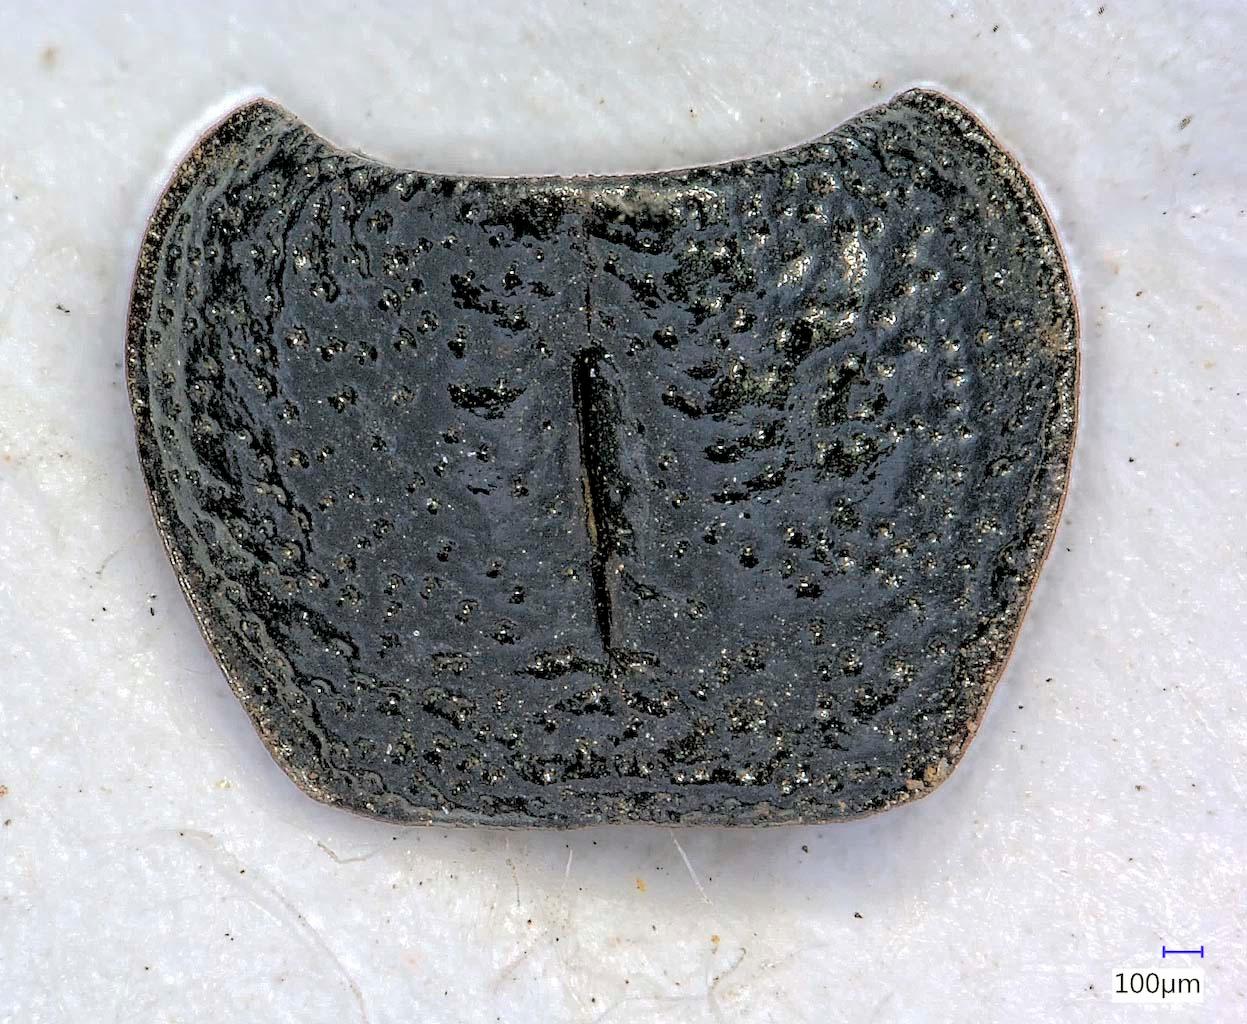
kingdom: Animalia
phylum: Arthropoda
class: Insecta
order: Coleoptera
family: Carabidae
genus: Dicheirus
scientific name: Dicheirus dilatatus
